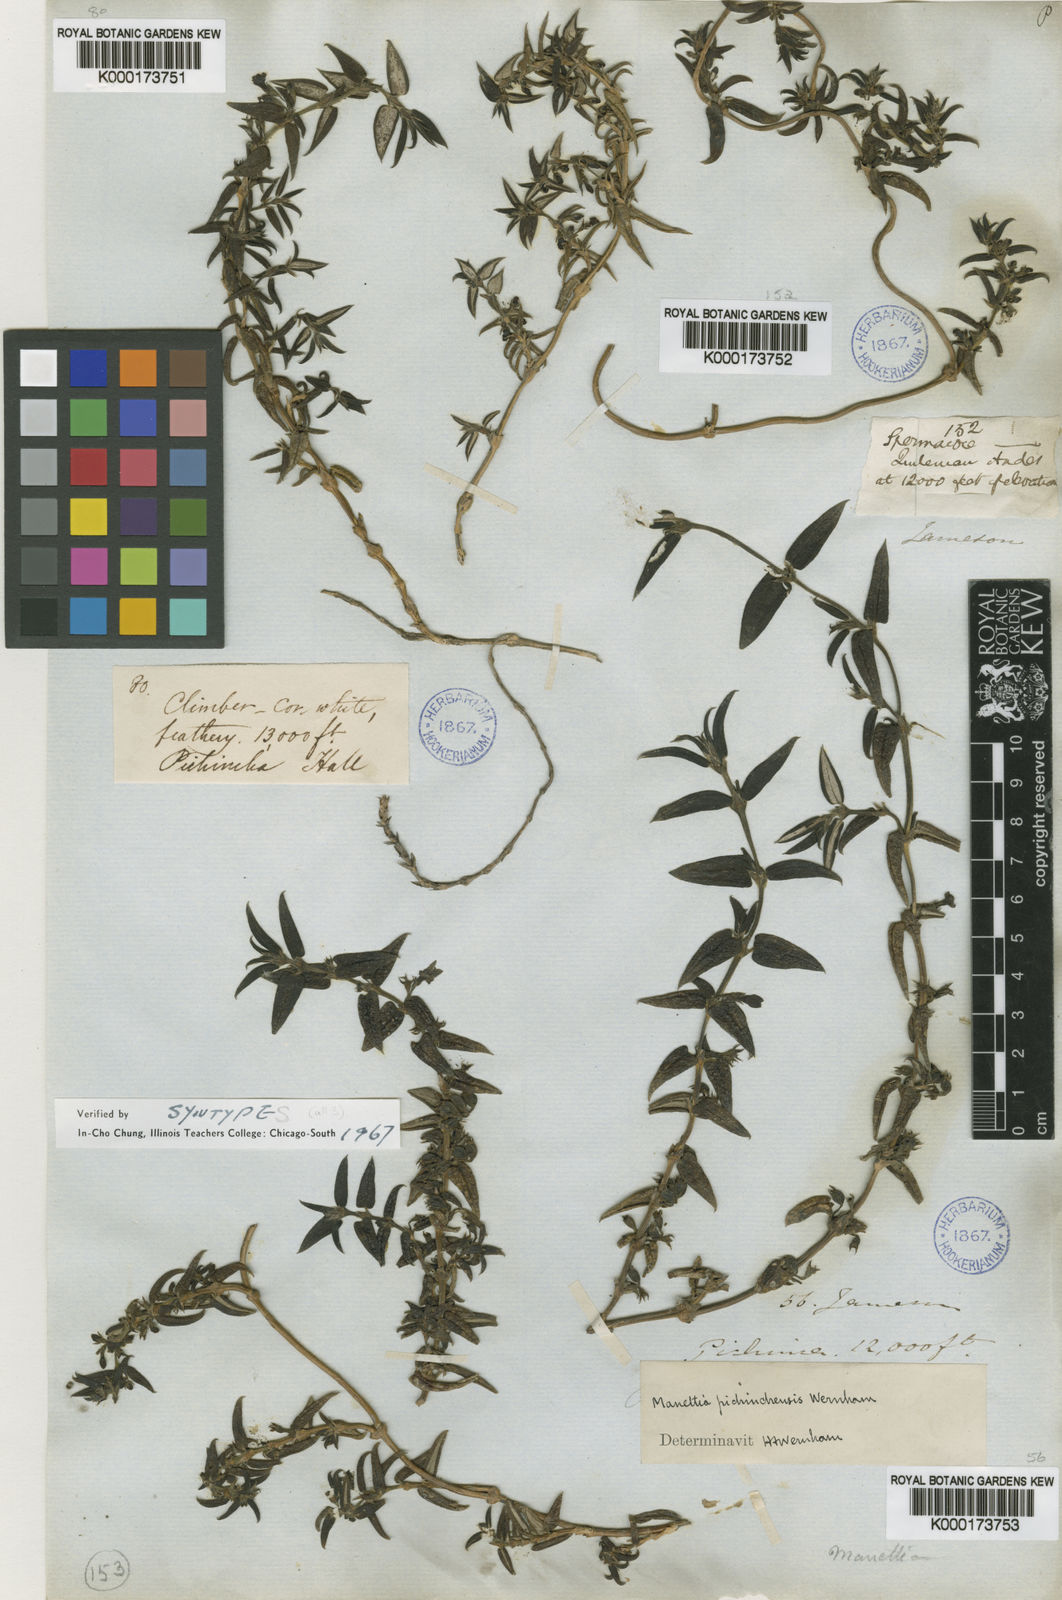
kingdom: Plantae
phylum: Tracheophyta
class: Magnoliopsida
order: Gentianales
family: Rubiaceae
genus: Manettia
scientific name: Manettia pichinchensis
